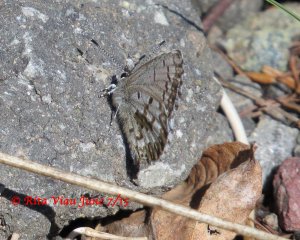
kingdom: Animalia
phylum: Arthropoda
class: Insecta
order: Lepidoptera
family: Lycaenidae
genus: Celastrina
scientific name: Celastrina lucia
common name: Northern Spring Azure
